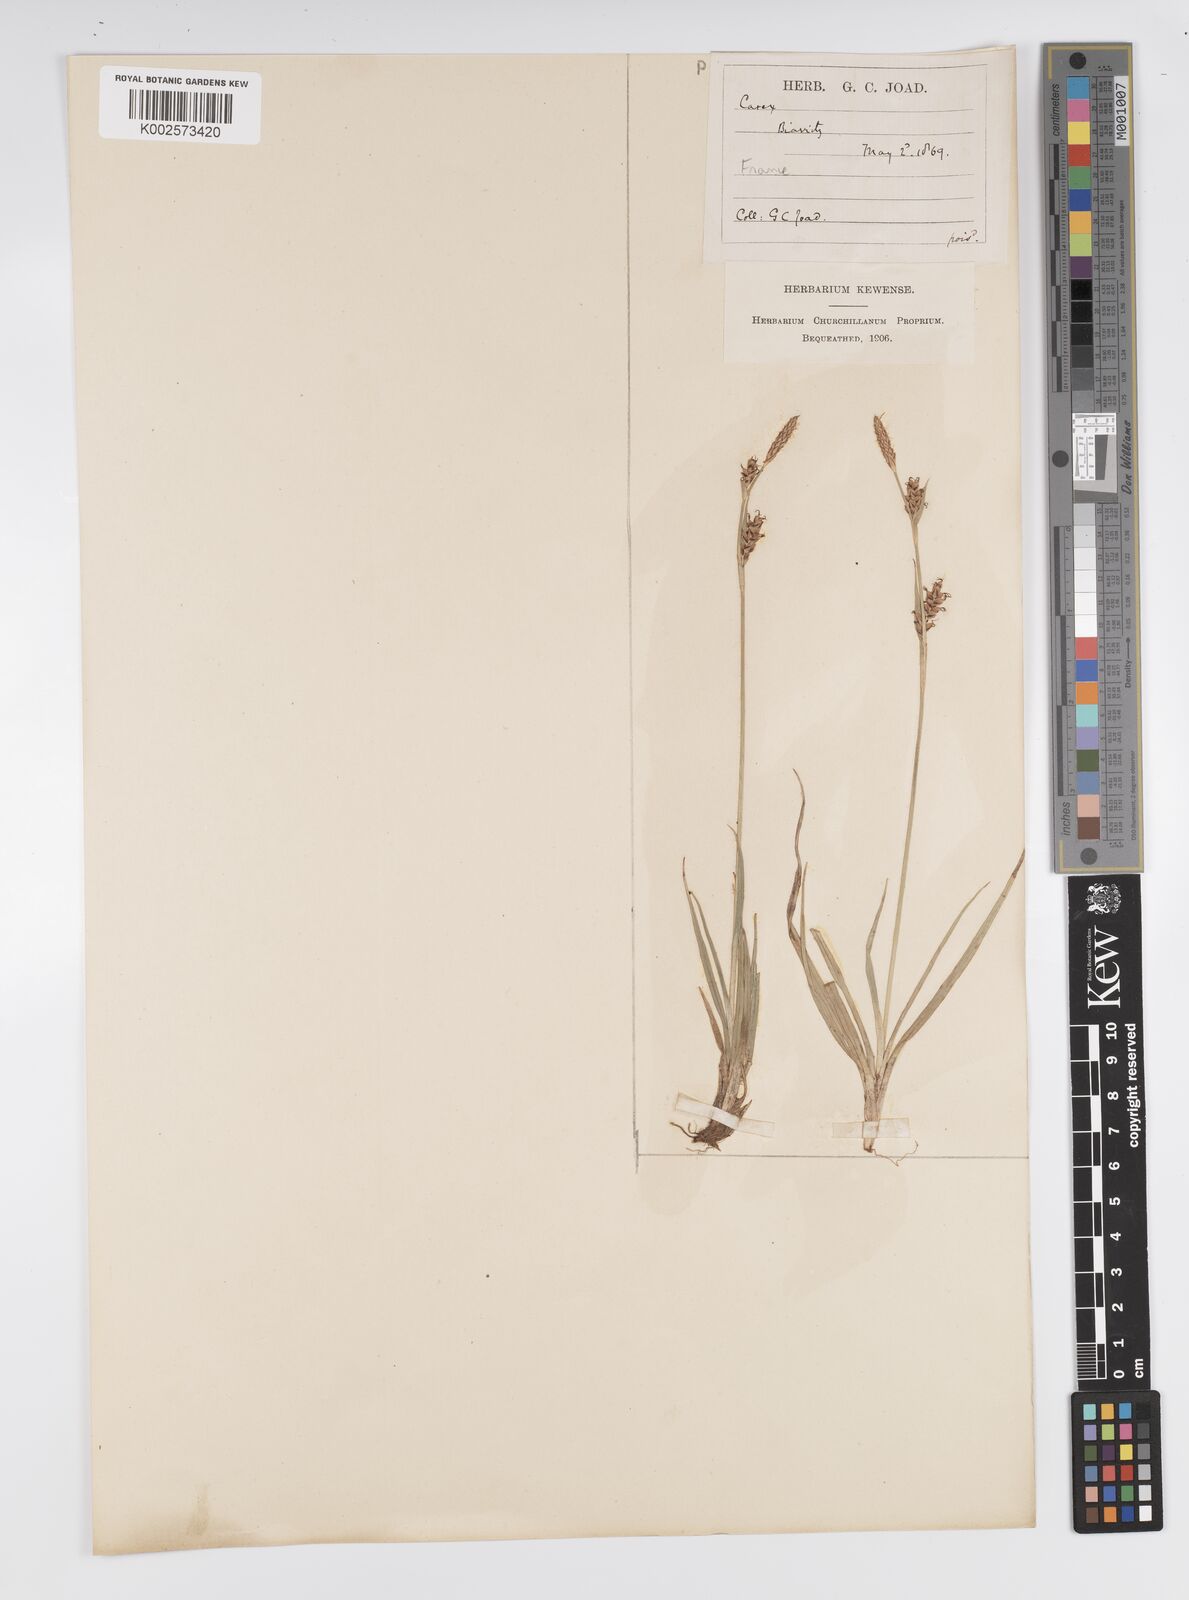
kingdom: Plantae
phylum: Tracheophyta
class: Liliopsida
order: Poales
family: Cyperaceae
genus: Carex
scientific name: Carex livida
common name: Livid sedge
